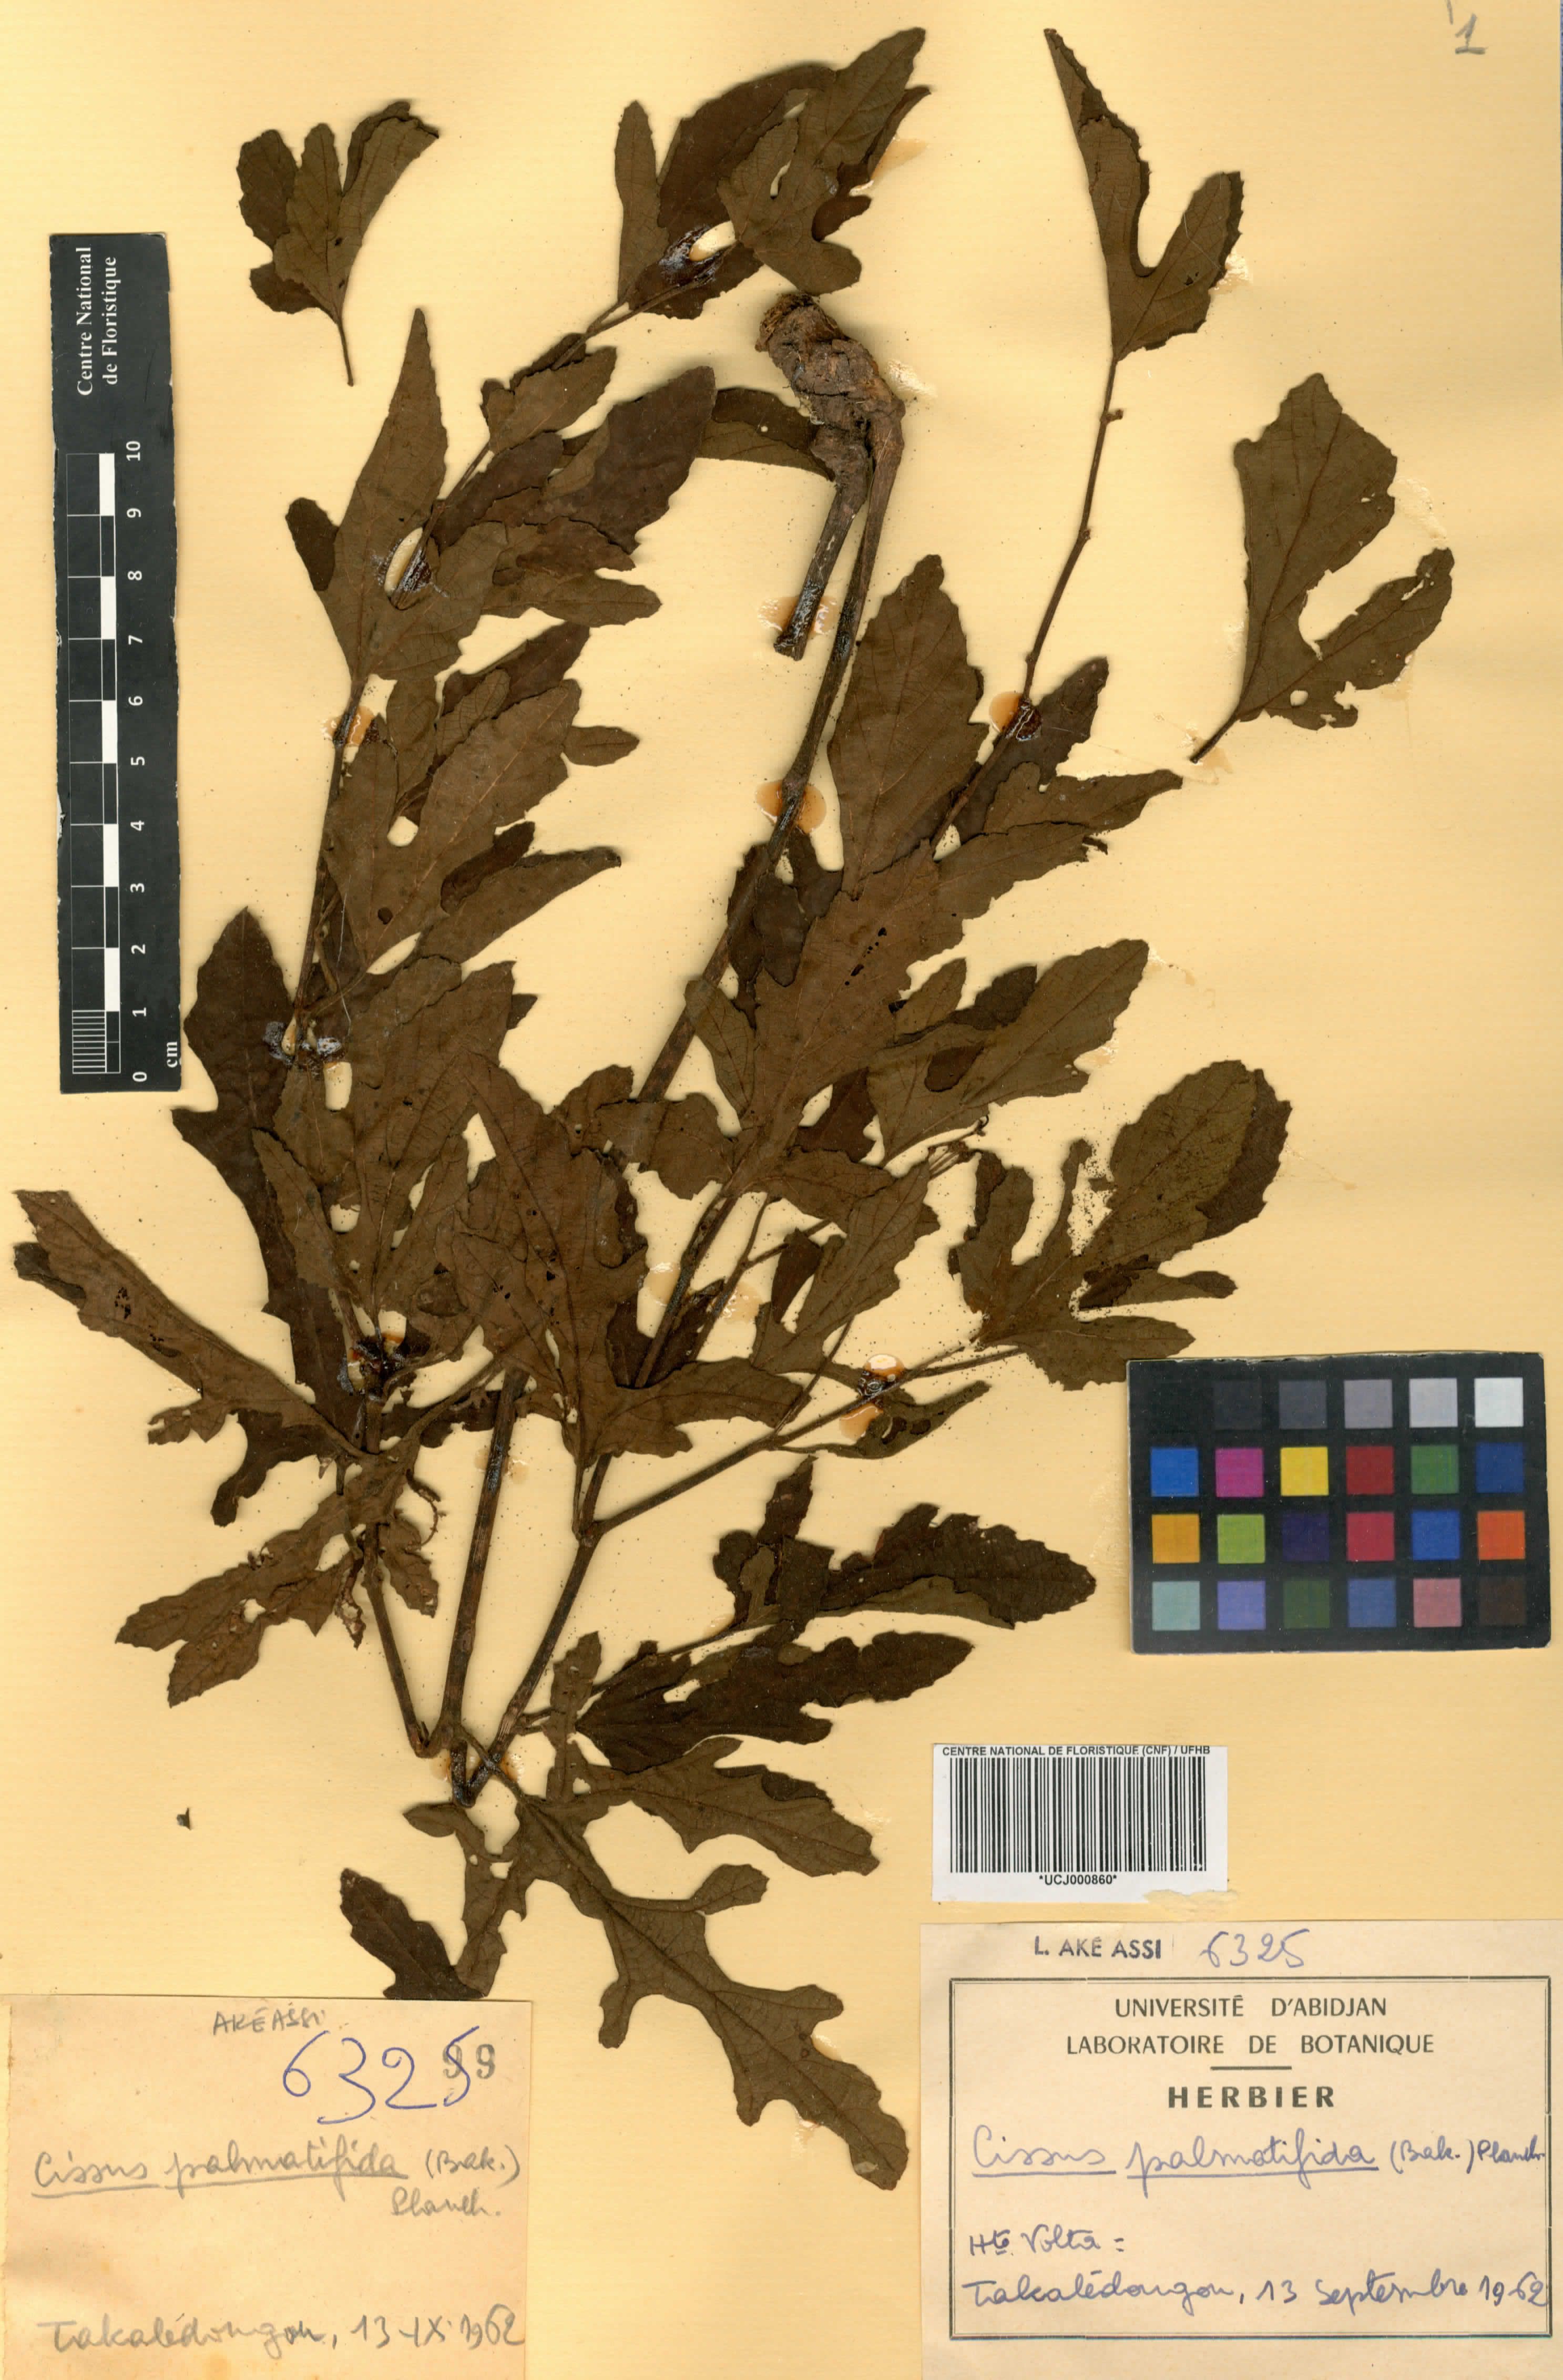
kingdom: Plantae
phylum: Tracheophyta
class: Magnoliopsida
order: Vitales
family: Vitaceae
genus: Cissus
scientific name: Cissus palmatifida
